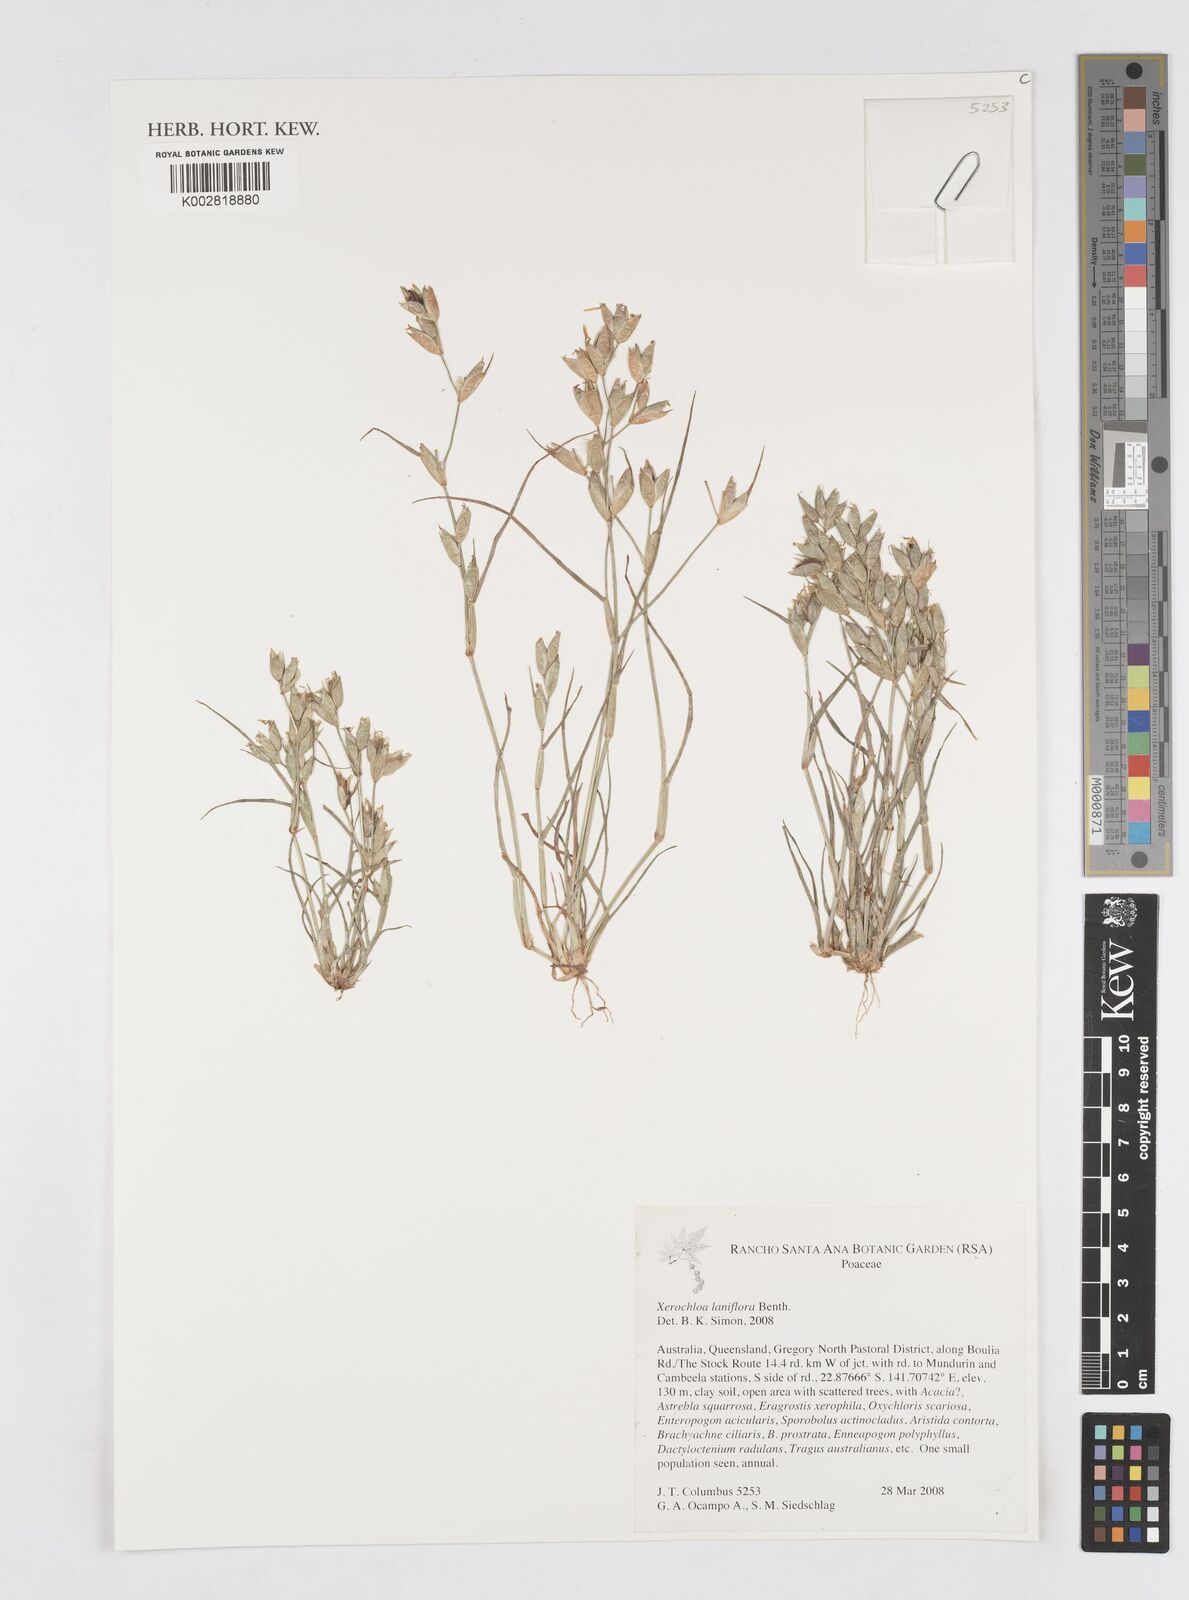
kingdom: Plantae
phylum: Tracheophyta
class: Liliopsida
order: Poales
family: Poaceae
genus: Xerochloa
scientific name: Xerochloa laniflora
